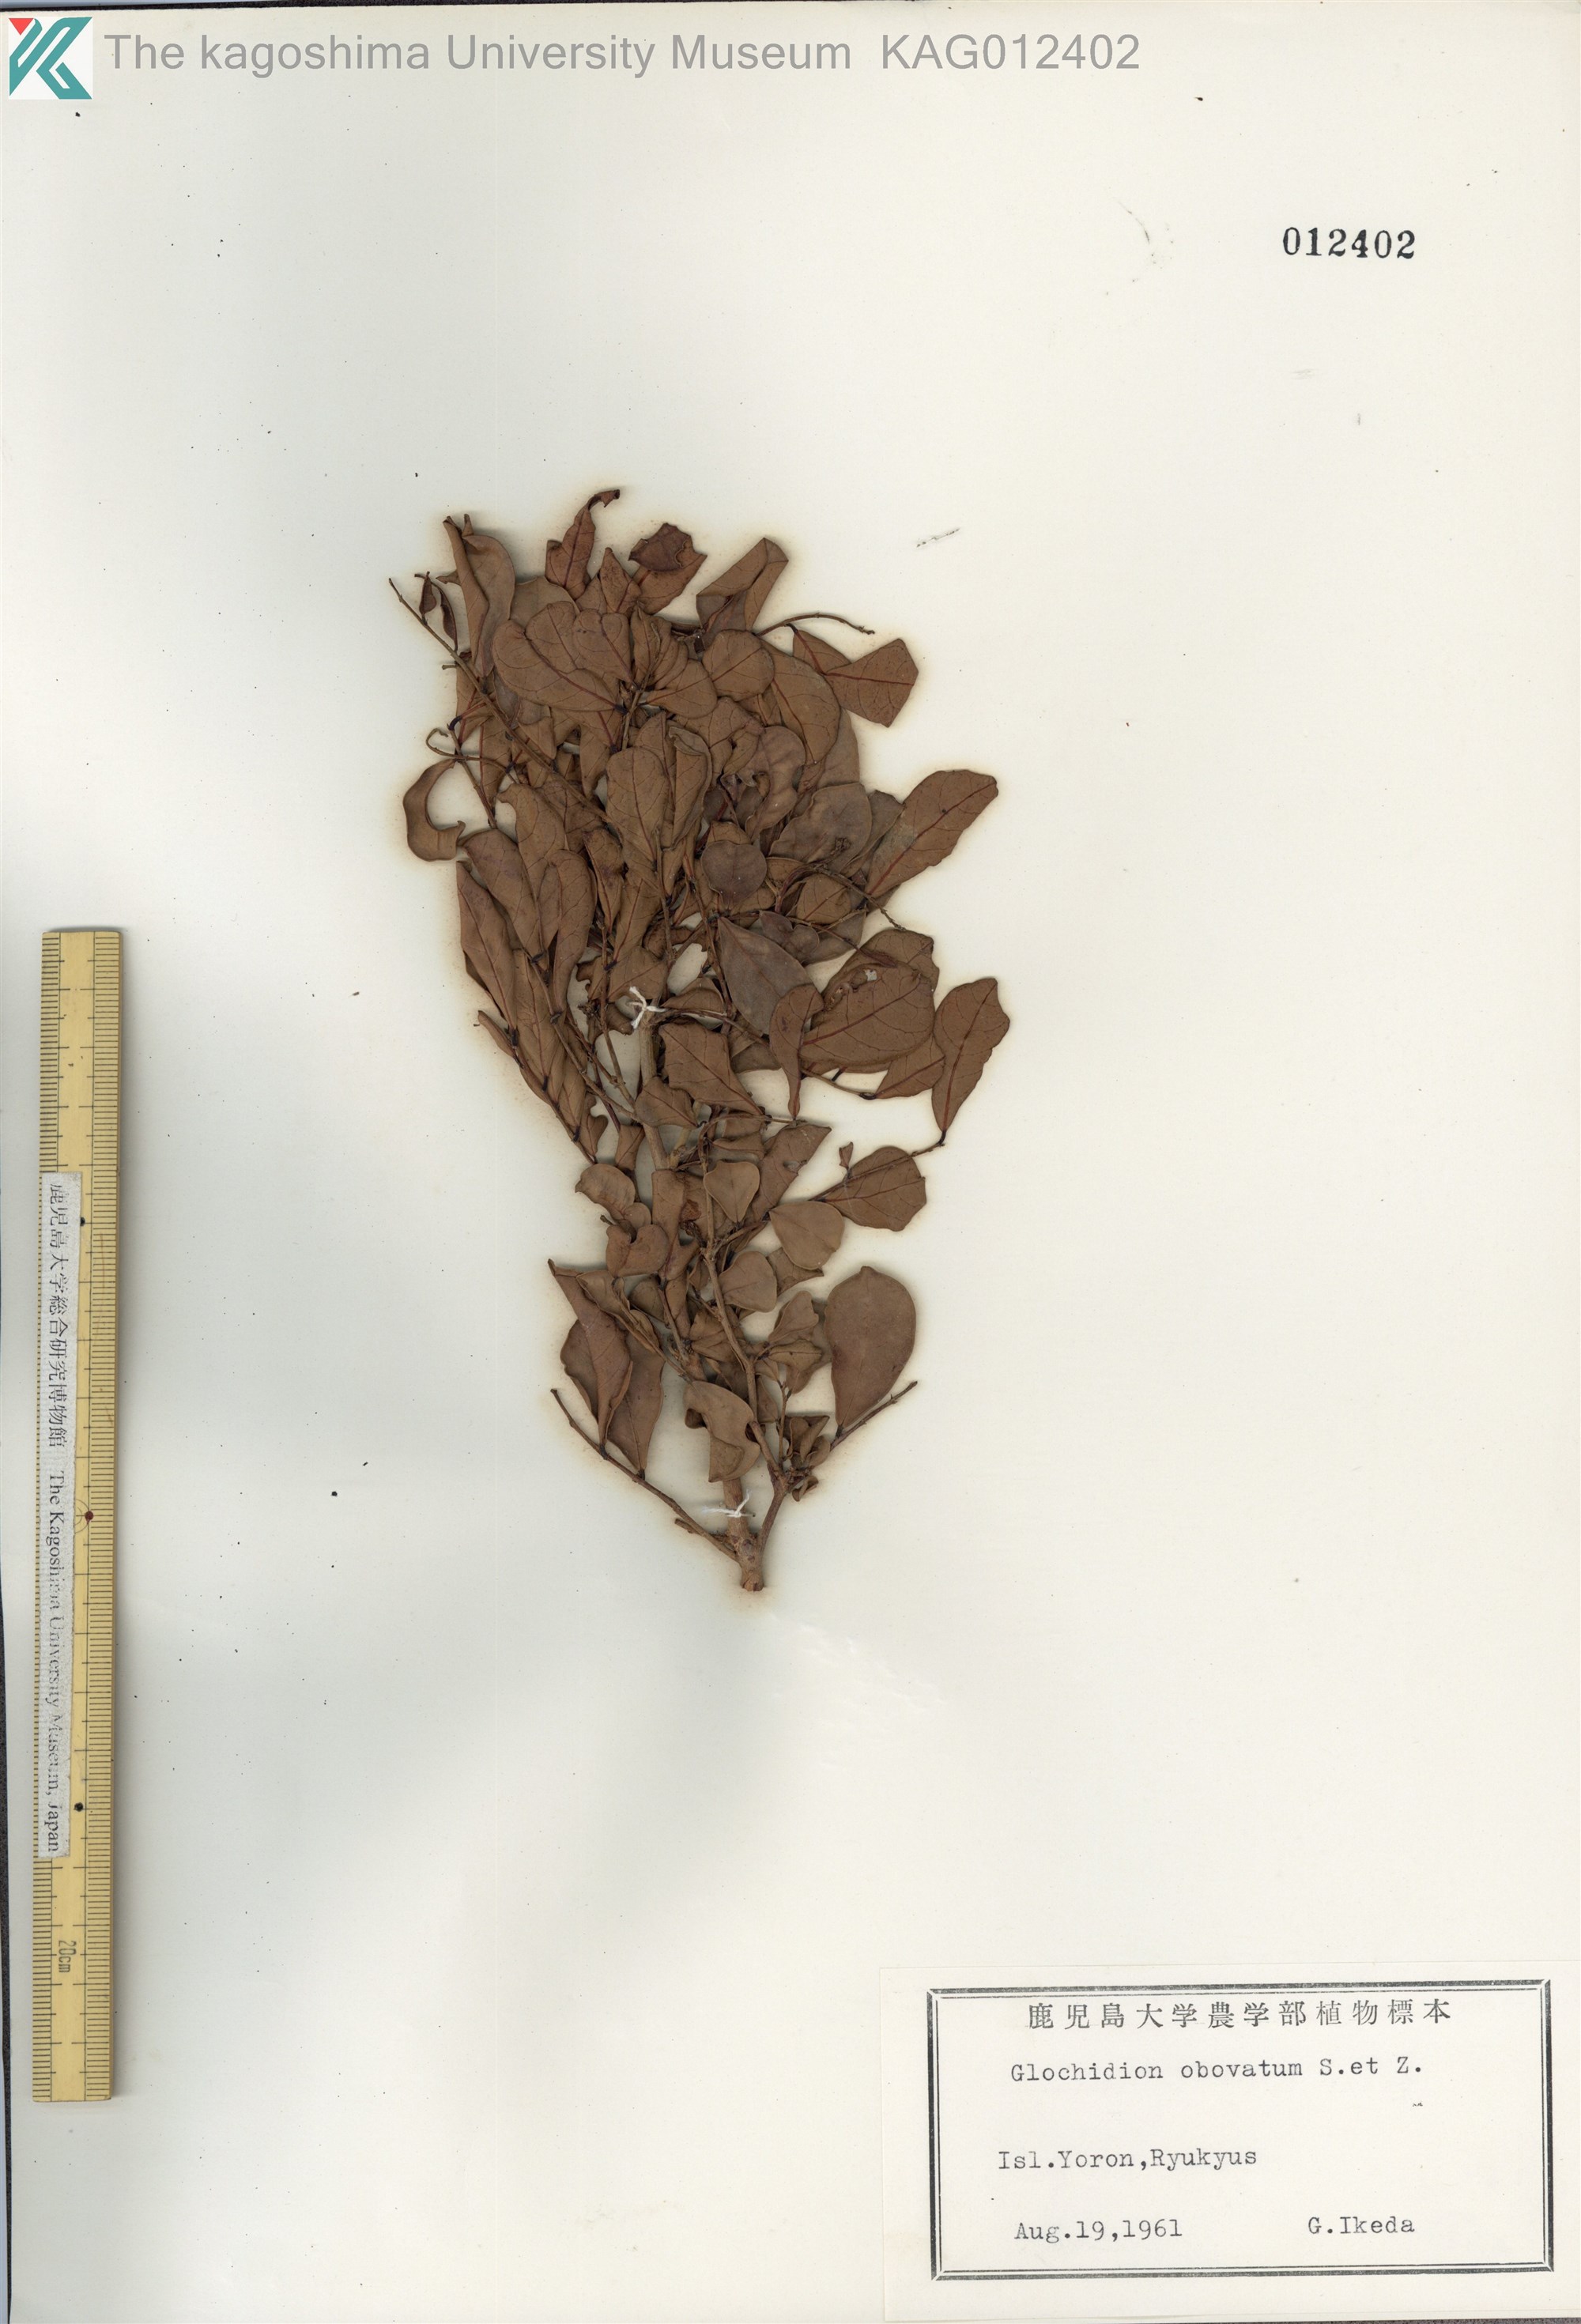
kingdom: Plantae
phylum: Tracheophyta
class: Magnoliopsida
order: Malpighiales
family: Phyllanthaceae
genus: Glochidion
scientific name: Glochidion obovatum
